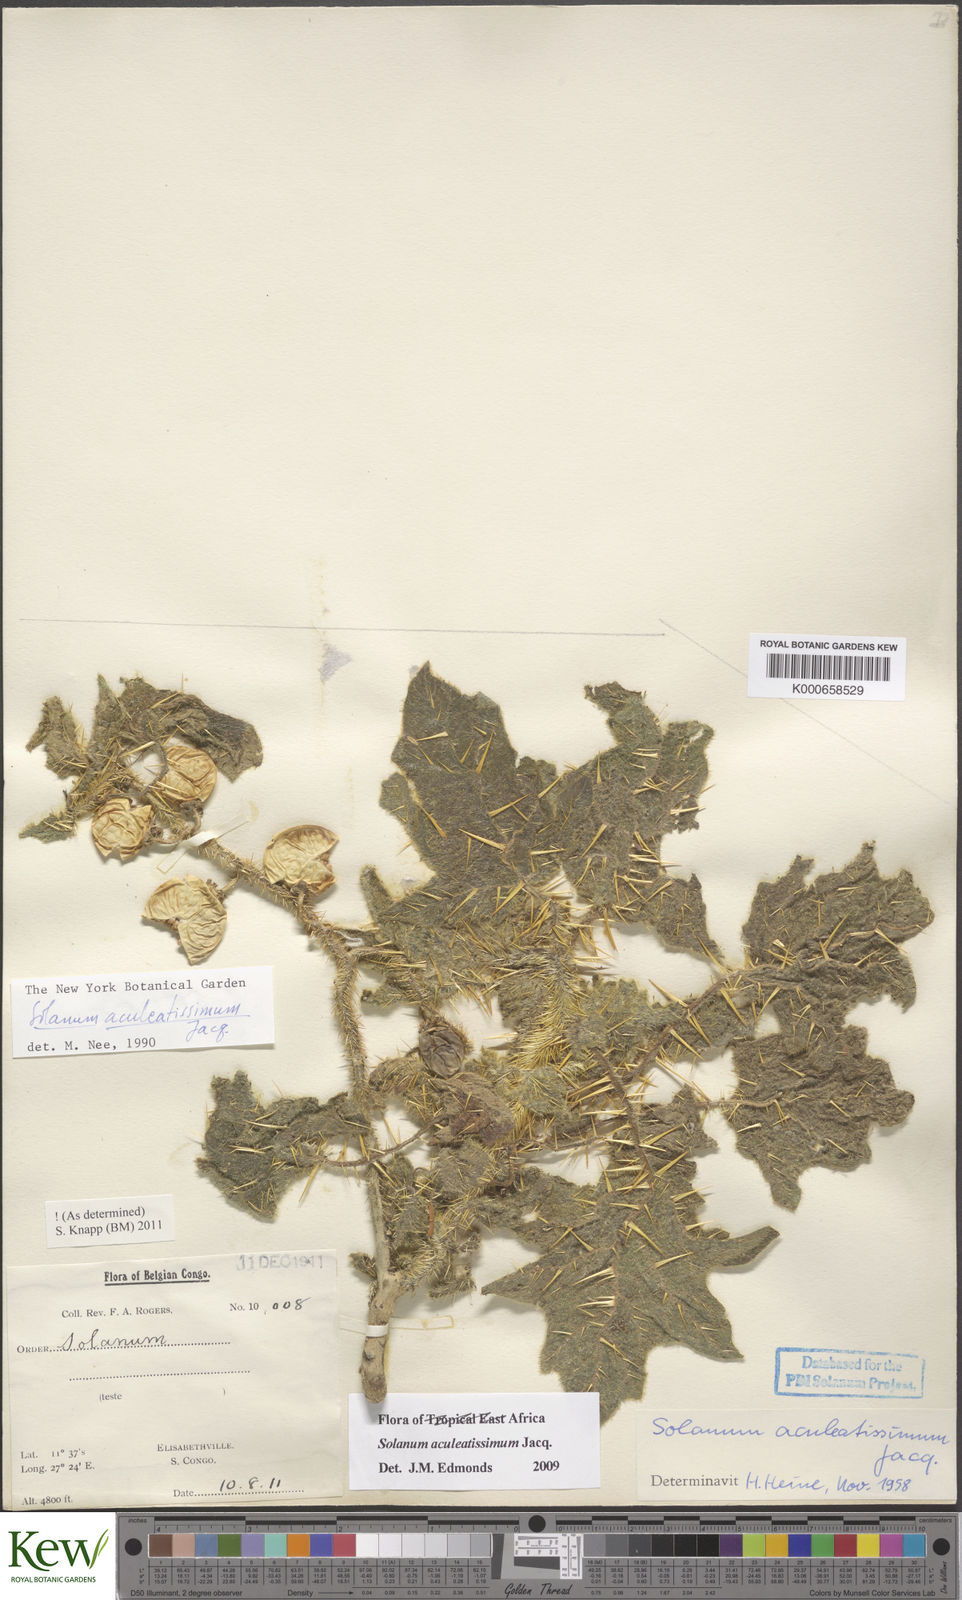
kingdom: Plantae
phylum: Tracheophyta
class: Magnoliopsida
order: Solanales
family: Solanaceae
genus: Solanum
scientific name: Solanum aculeatissimum
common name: Dutch eggplant
